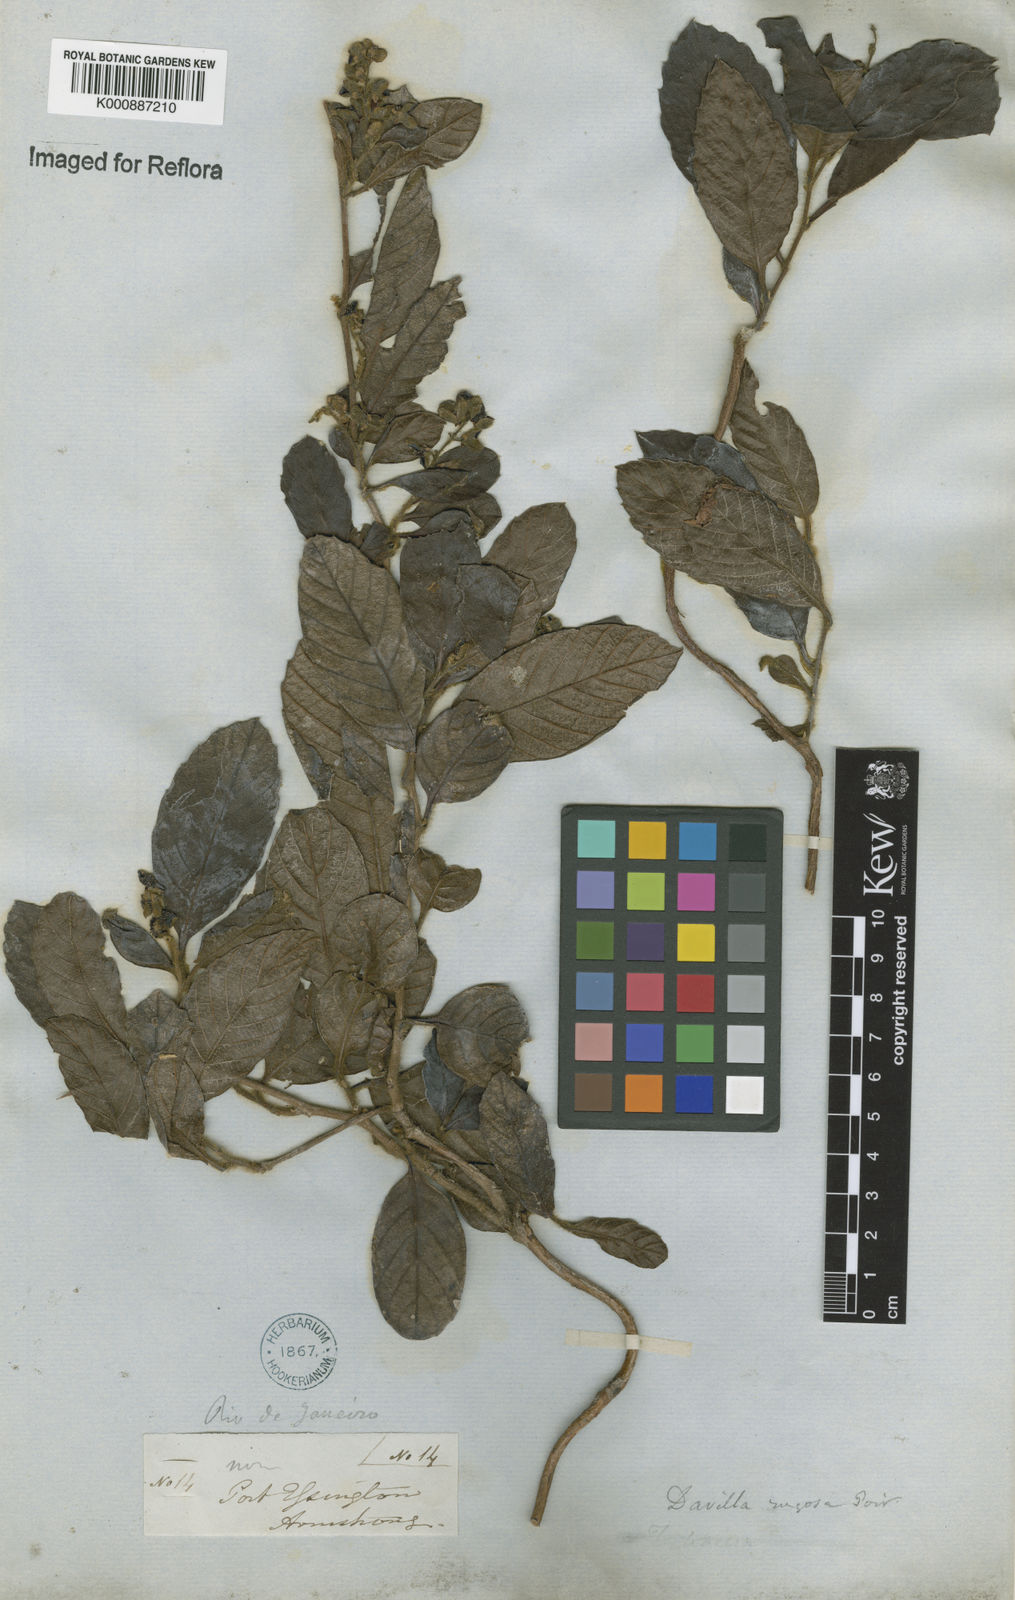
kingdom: Plantae
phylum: Tracheophyta
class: Magnoliopsida
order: Dilleniales
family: Dilleniaceae
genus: Davilla
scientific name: Davilla rugosa
